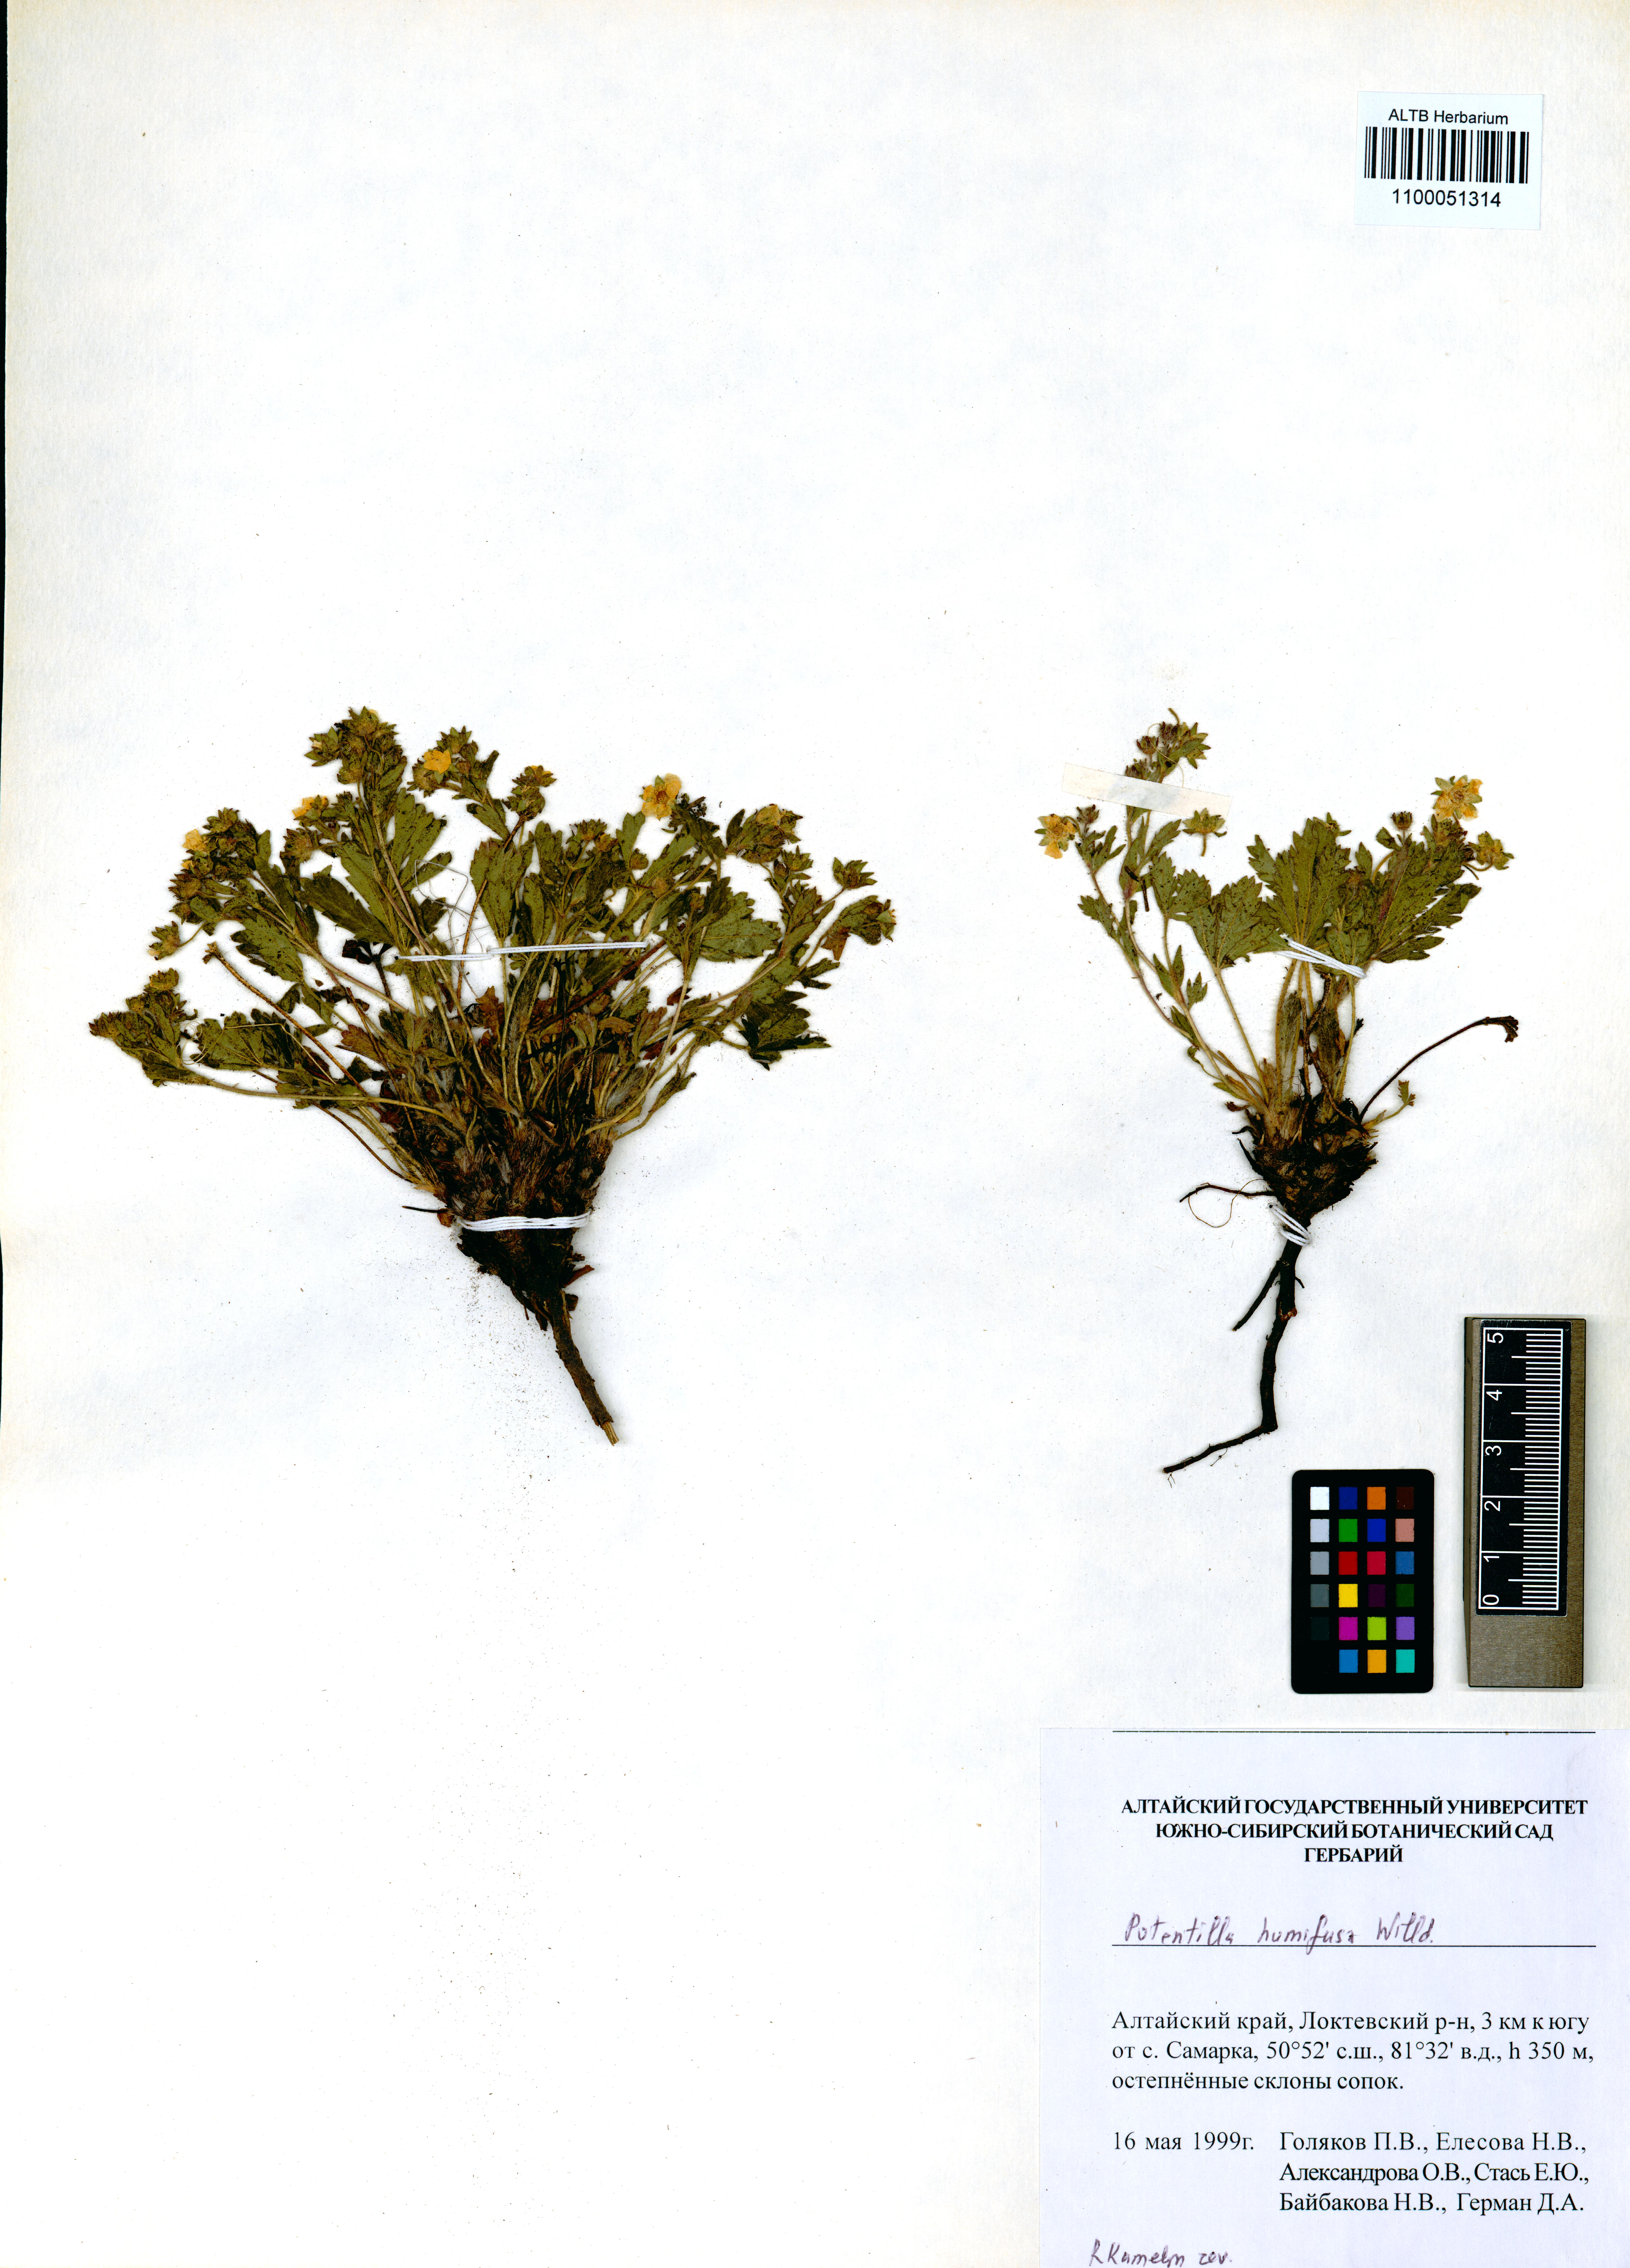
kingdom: Plantae
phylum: Tracheophyta
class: Magnoliopsida
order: Rosales
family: Rosaceae
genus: Potentilla
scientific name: Potentilla humifusa
